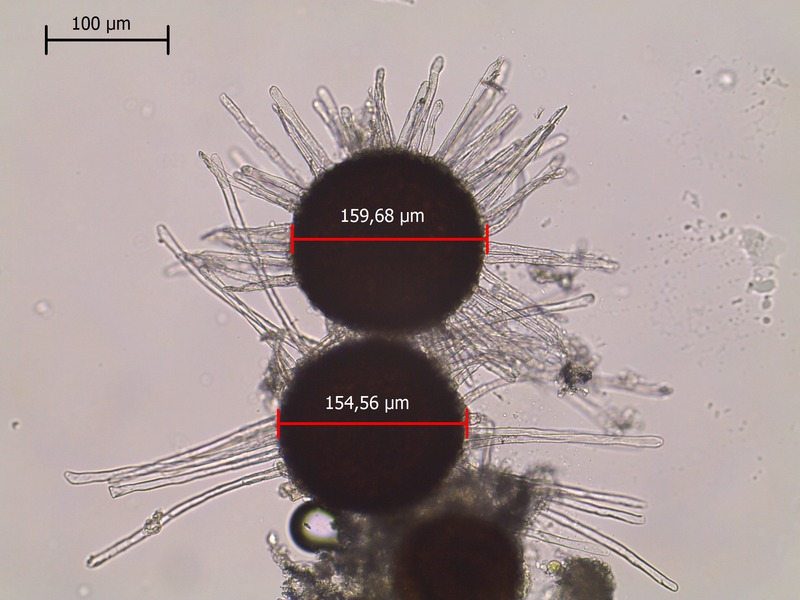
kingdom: Fungi
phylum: Ascomycota
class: Leotiomycetes
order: Helotiales
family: Erysiphaceae
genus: Erysiphe
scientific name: Erysiphe adunca
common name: Willow mildew
